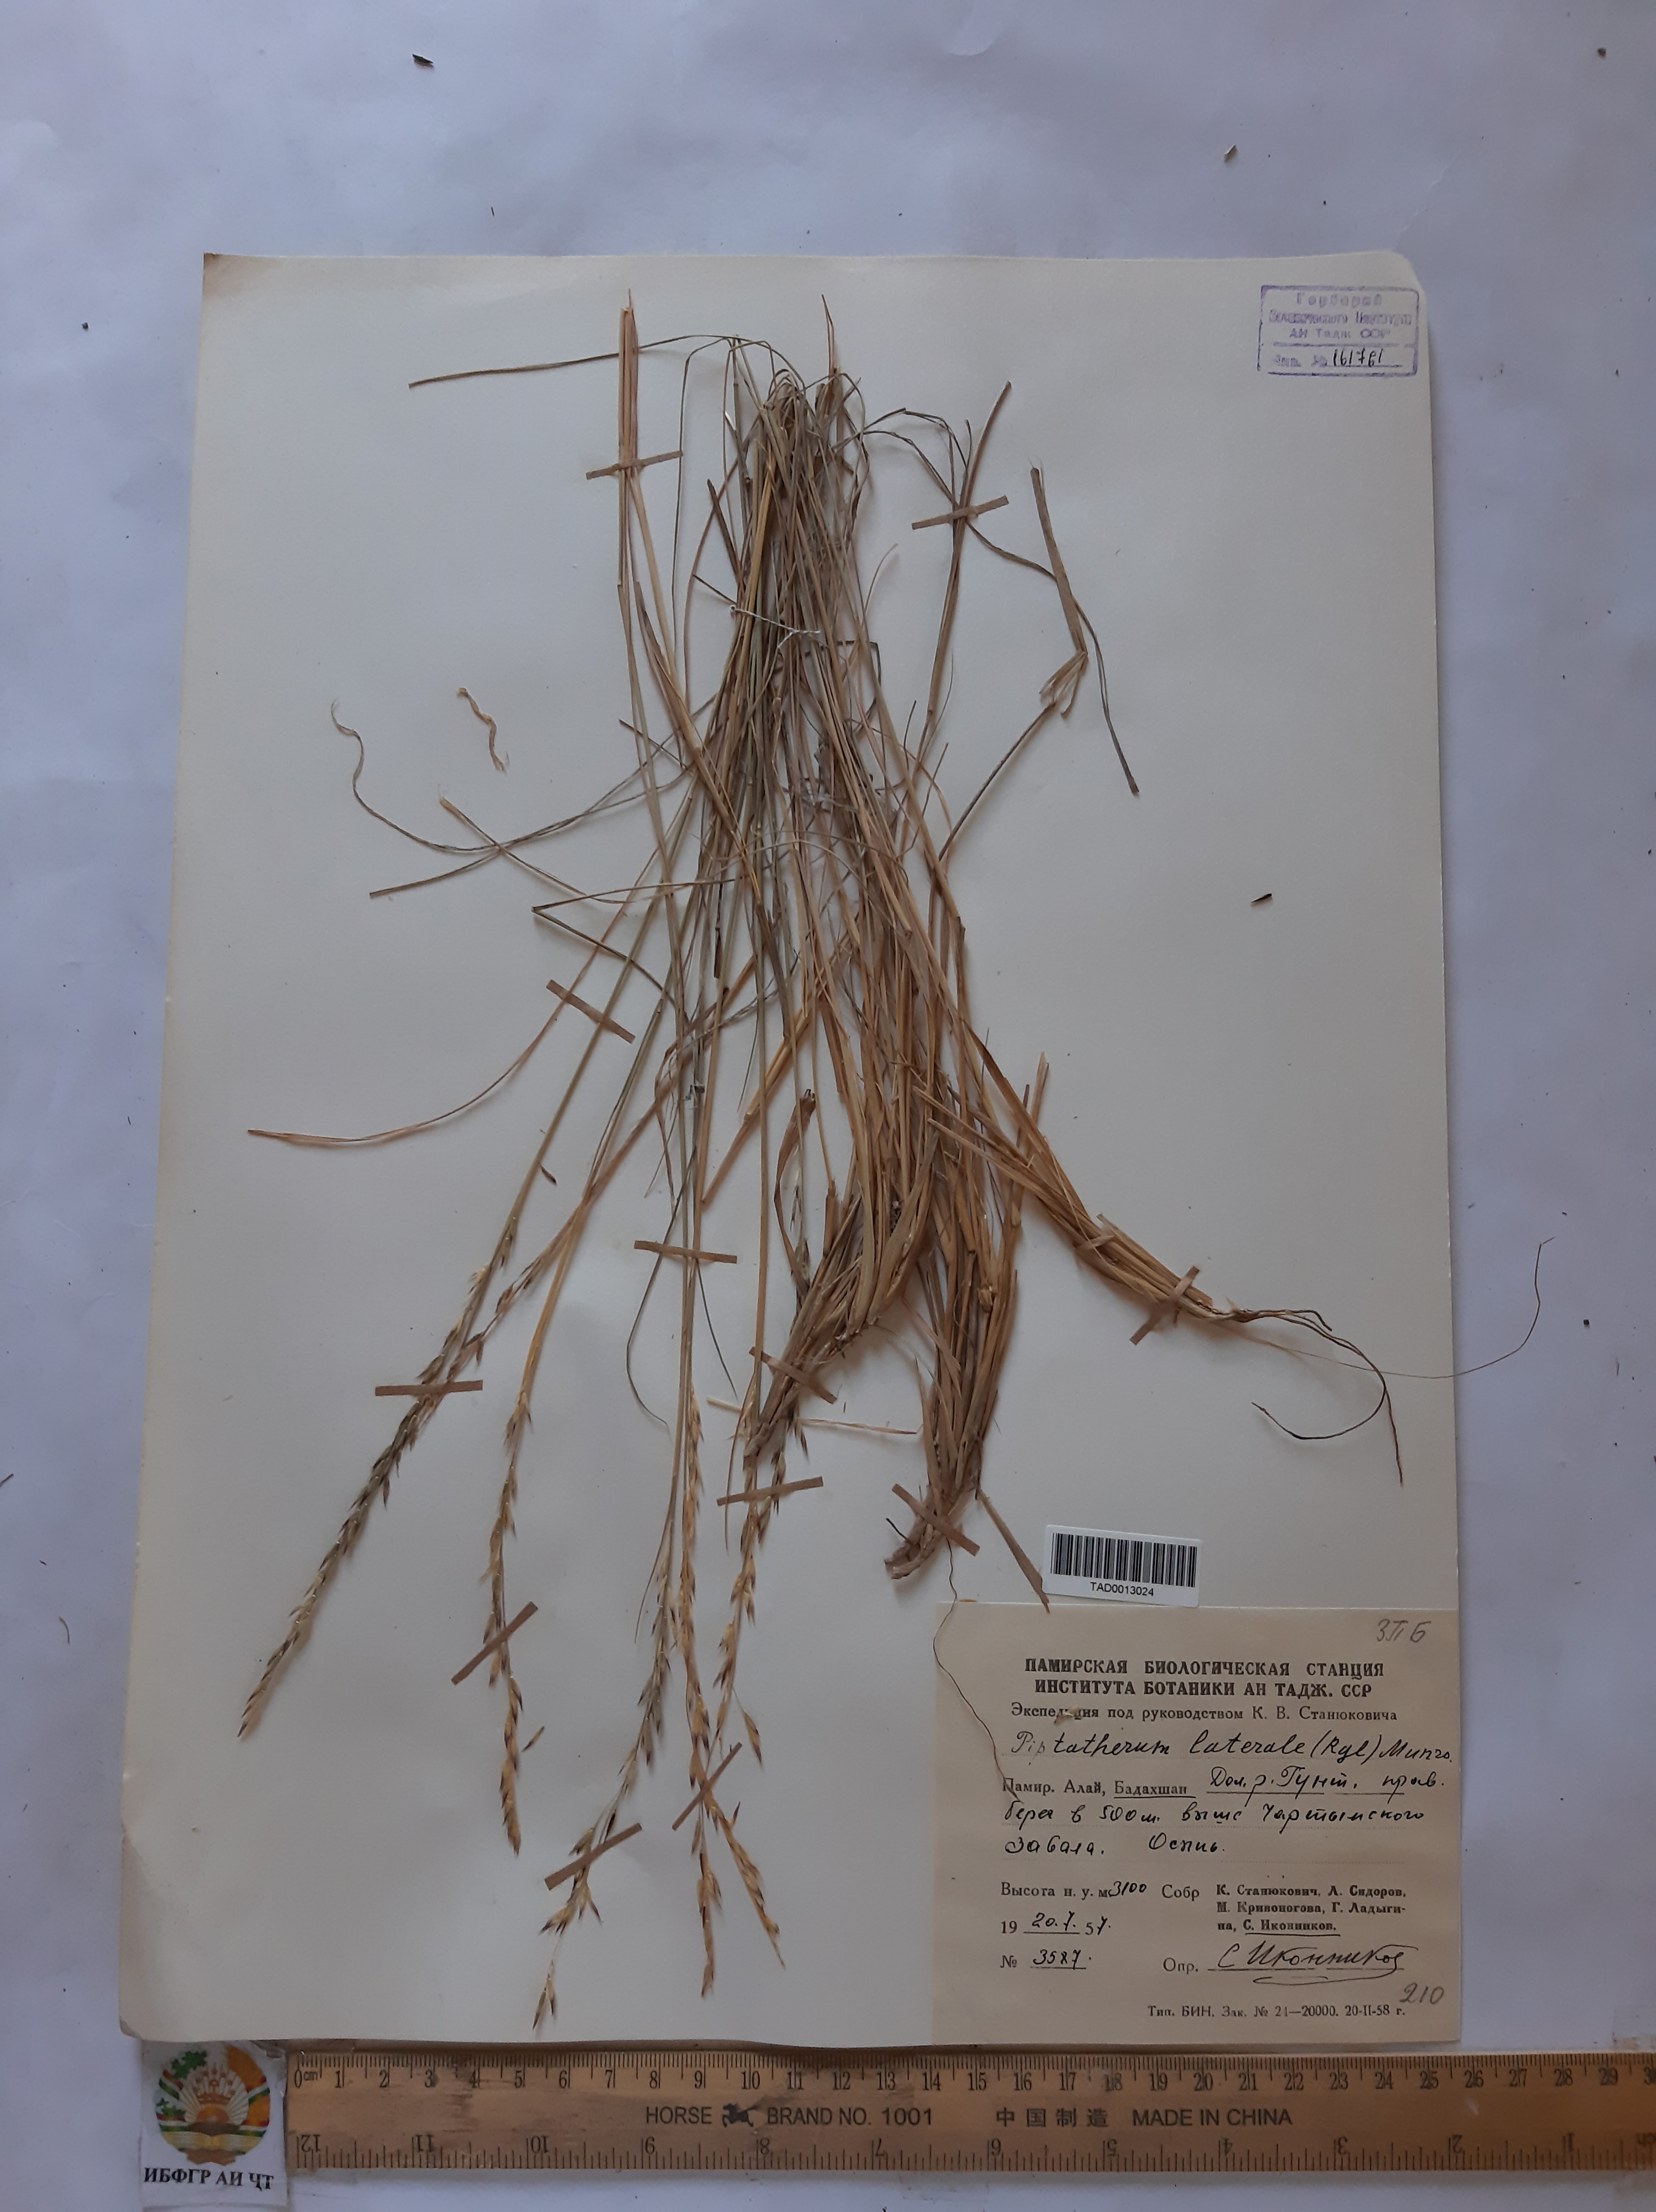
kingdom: Plantae
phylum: Tracheophyta
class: Liliopsida
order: Poales
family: Poaceae
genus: Piptatherum
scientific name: Piptatherum laterale
